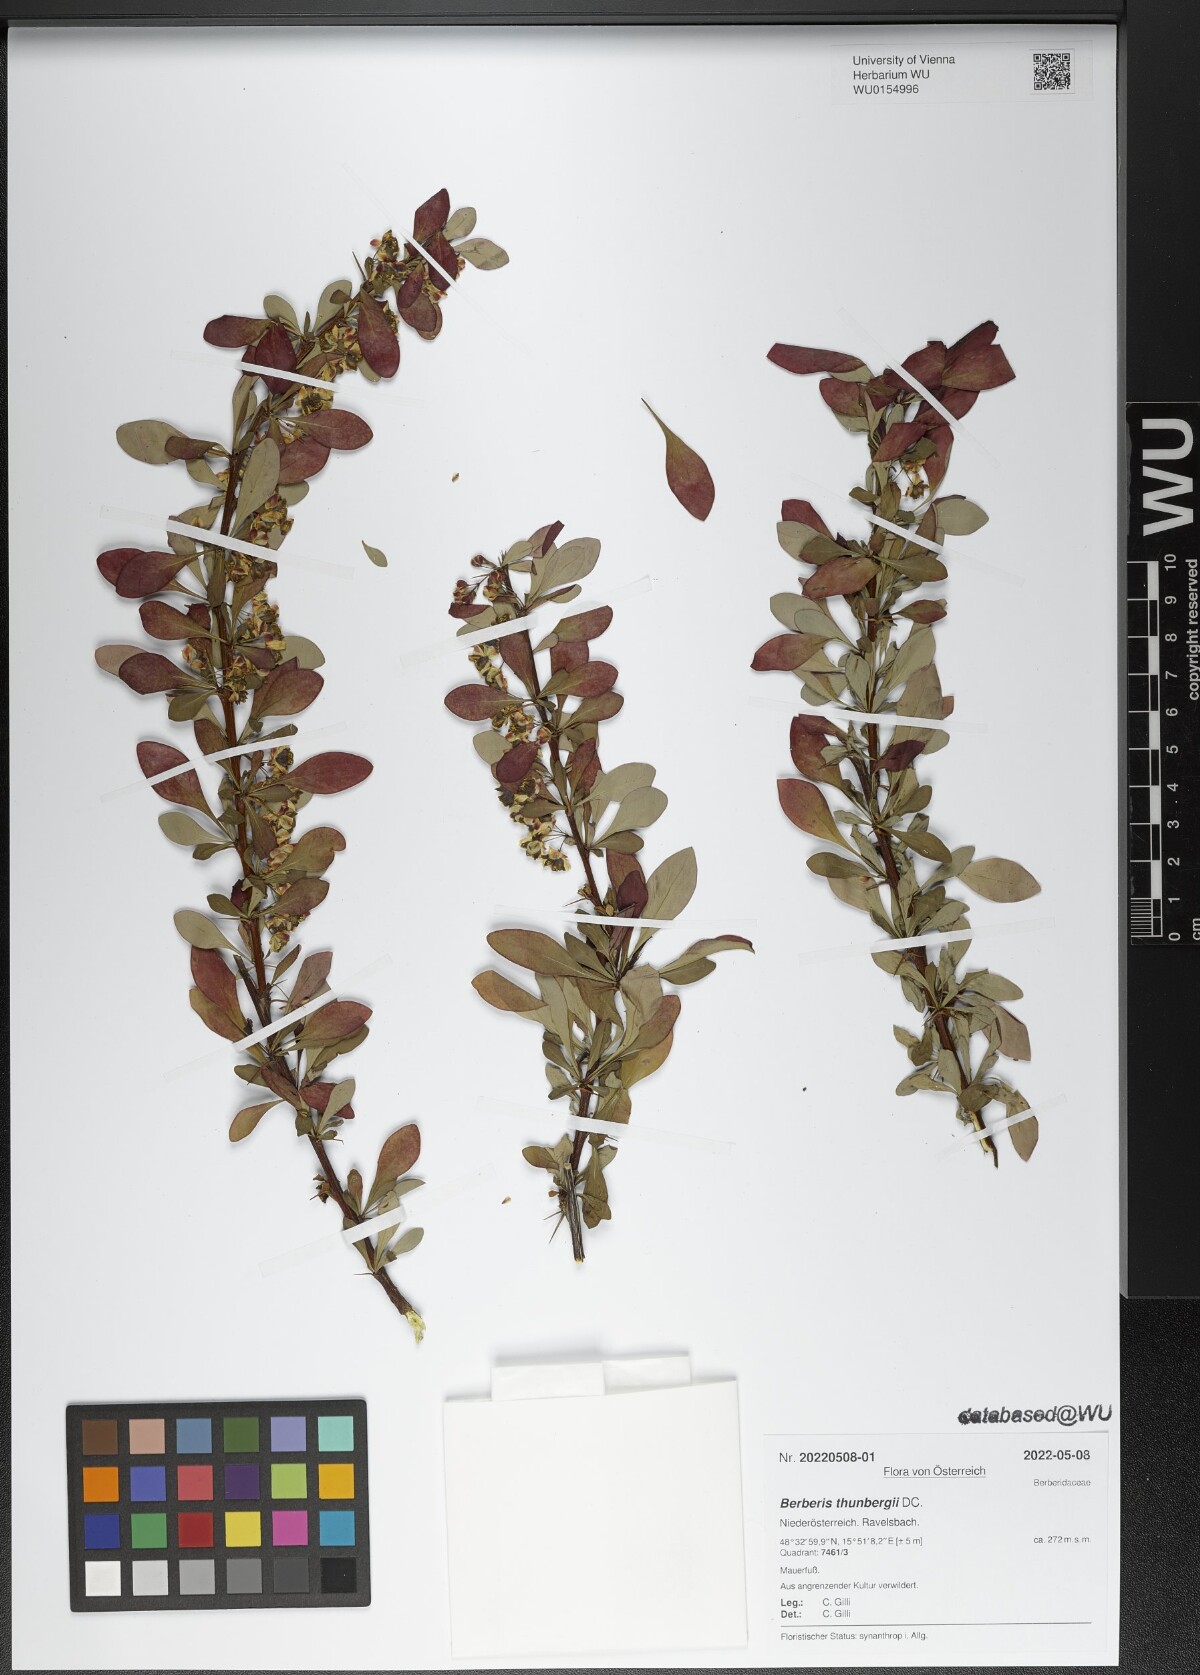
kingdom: Plantae
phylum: Tracheophyta
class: Magnoliopsida
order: Ranunculales
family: Berberidaceae
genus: Berberis
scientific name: Berberis thunbergii
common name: Japanese barberry
